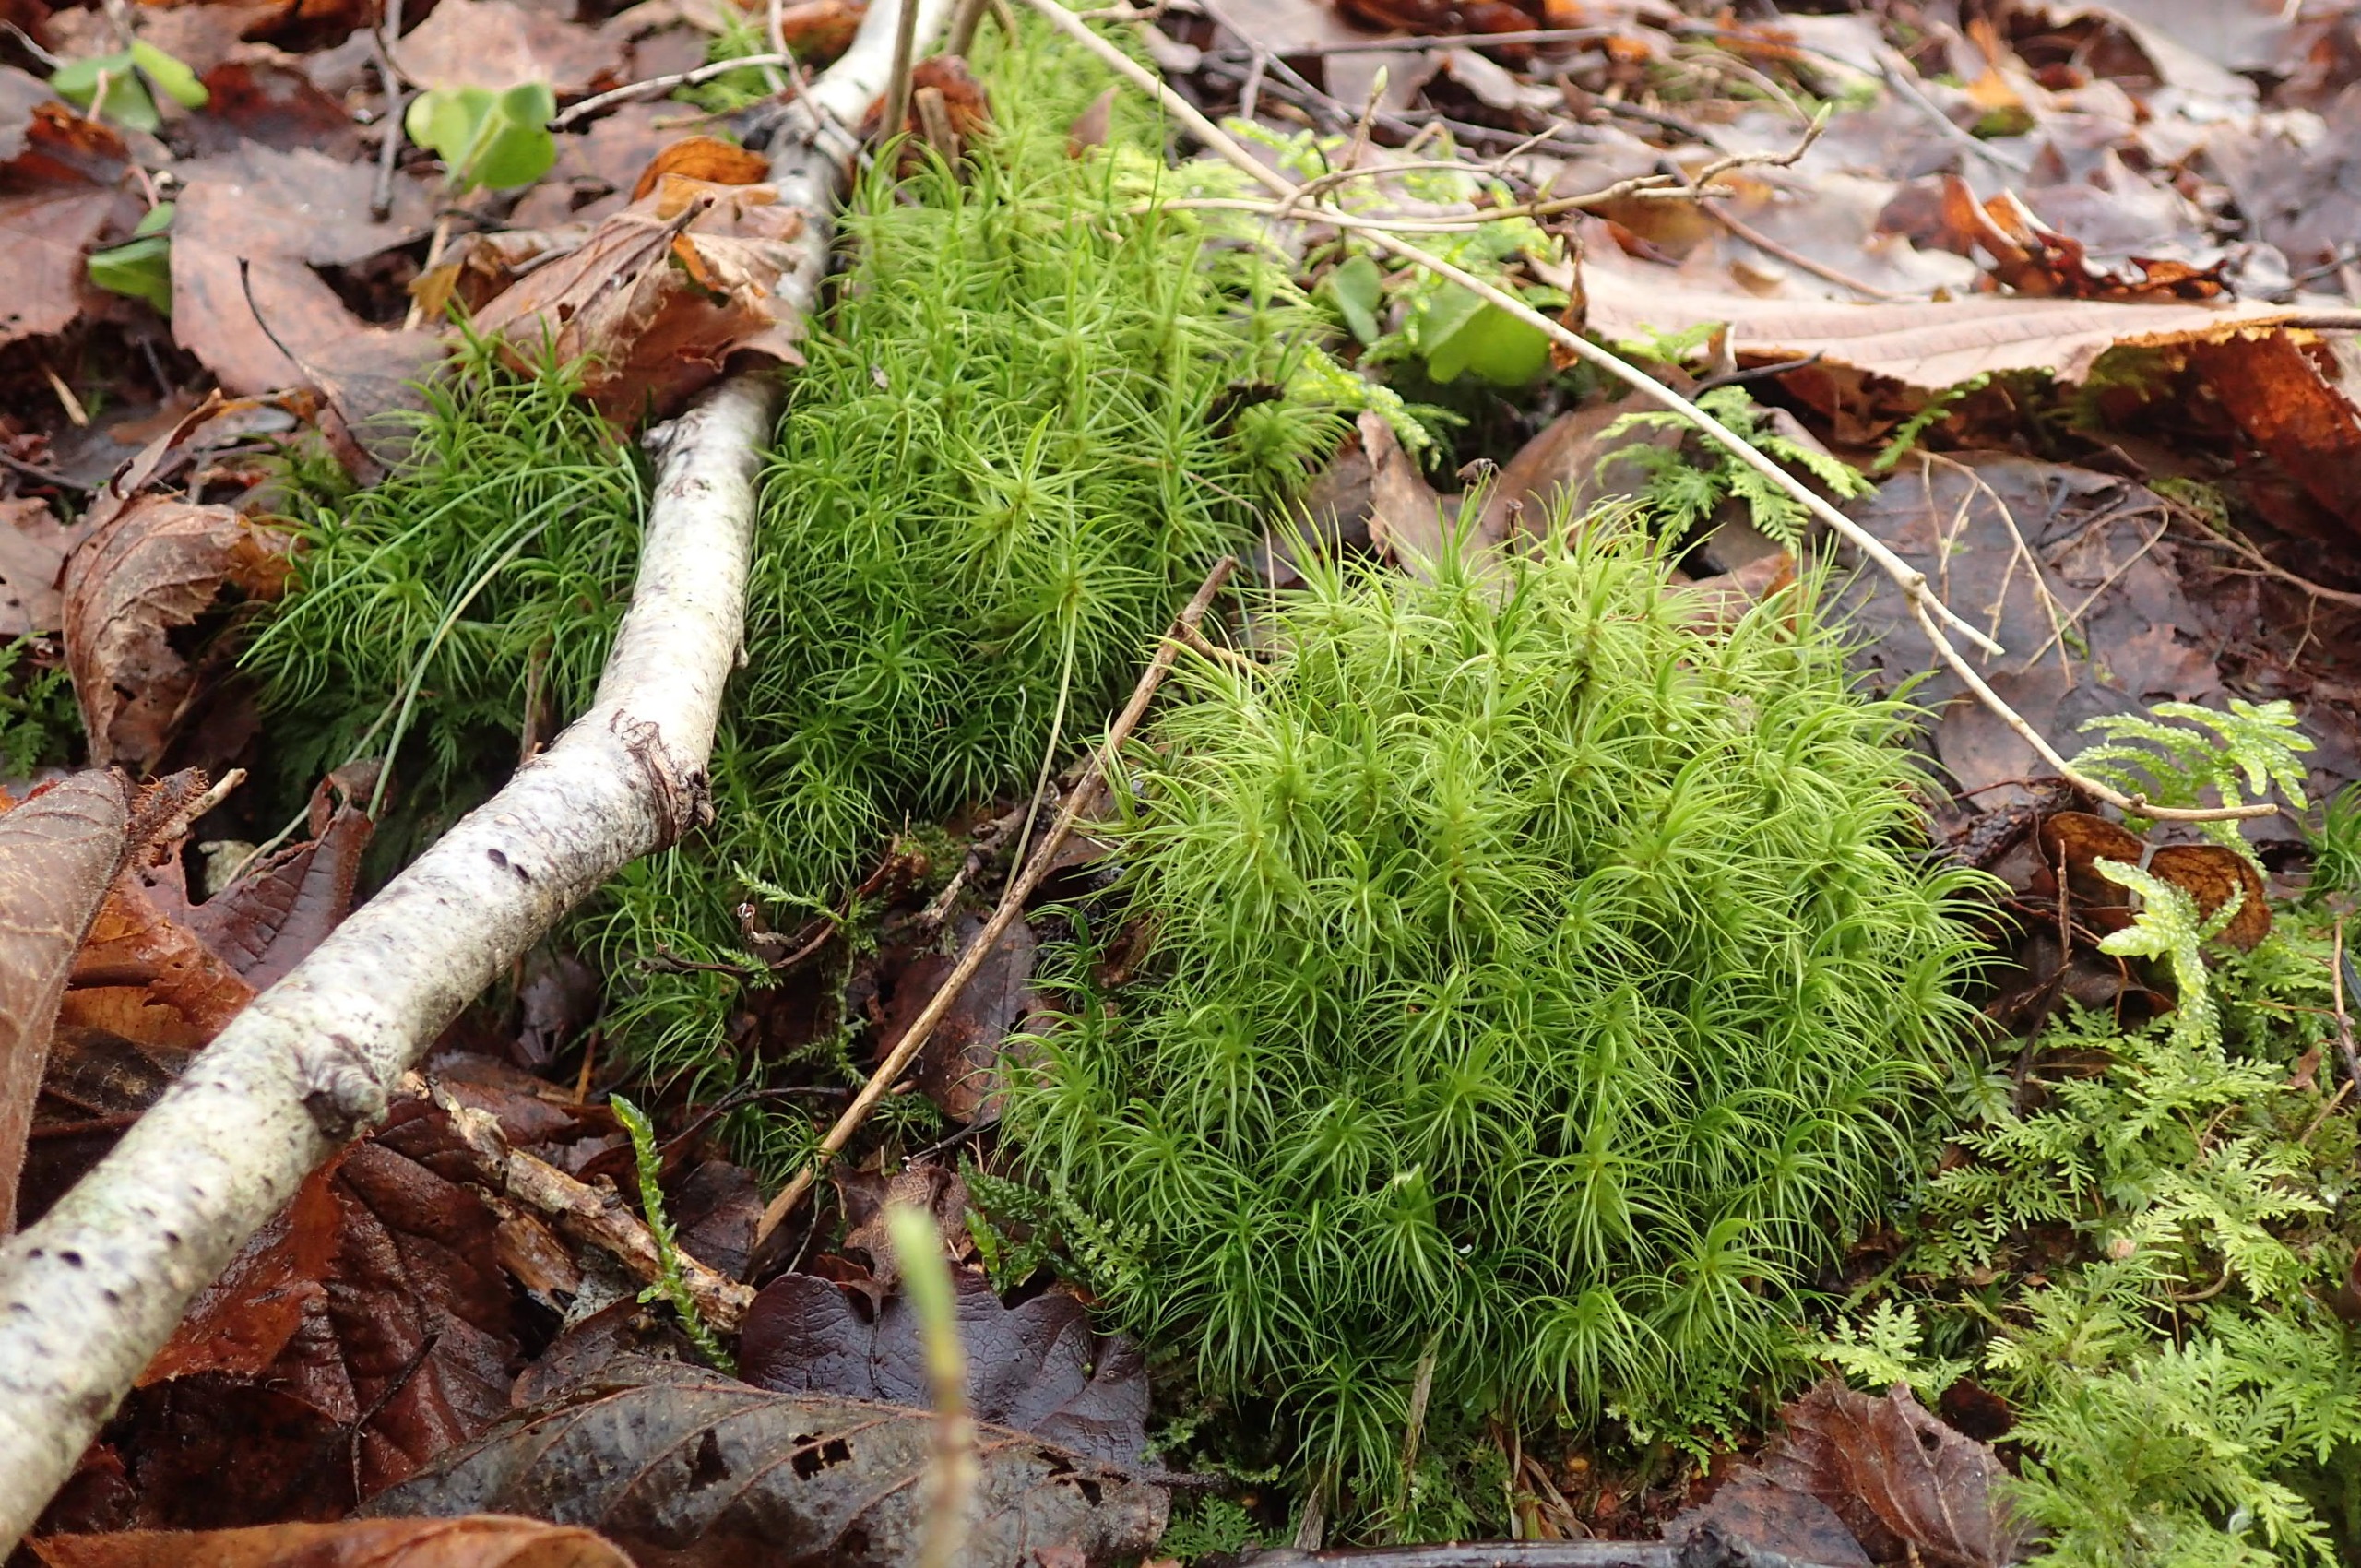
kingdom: Plantae
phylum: Bryophyta
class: Bryopsida
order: Dicranales
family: Dicranaceae
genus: Dicranum
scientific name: Dicranum majus
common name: Stor kløvtand
